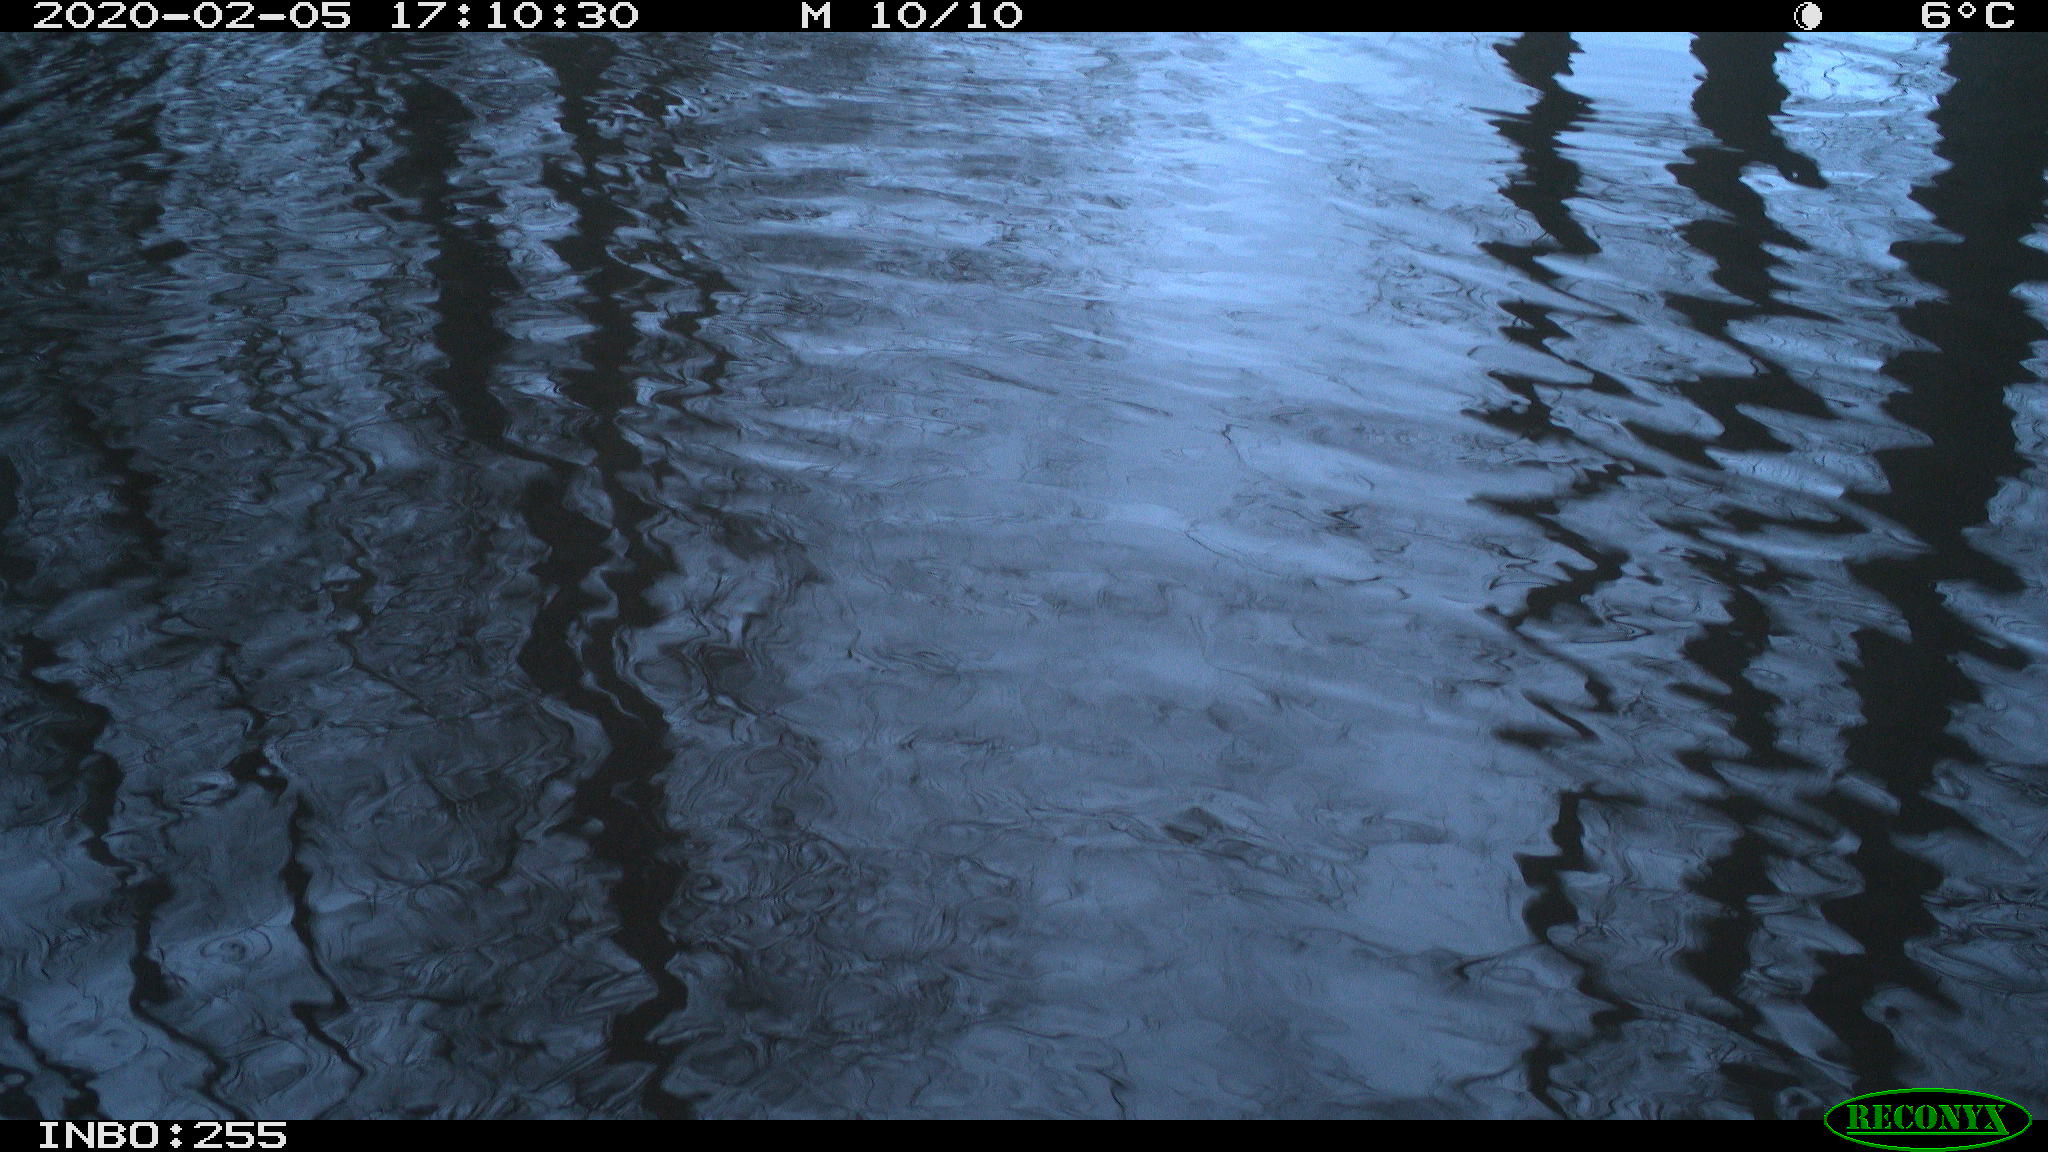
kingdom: Animalia
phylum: Chordata
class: Aves
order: Gruiformes
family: Rallidae
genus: Fulica
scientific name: Fulica atra
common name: Eurasian coot
